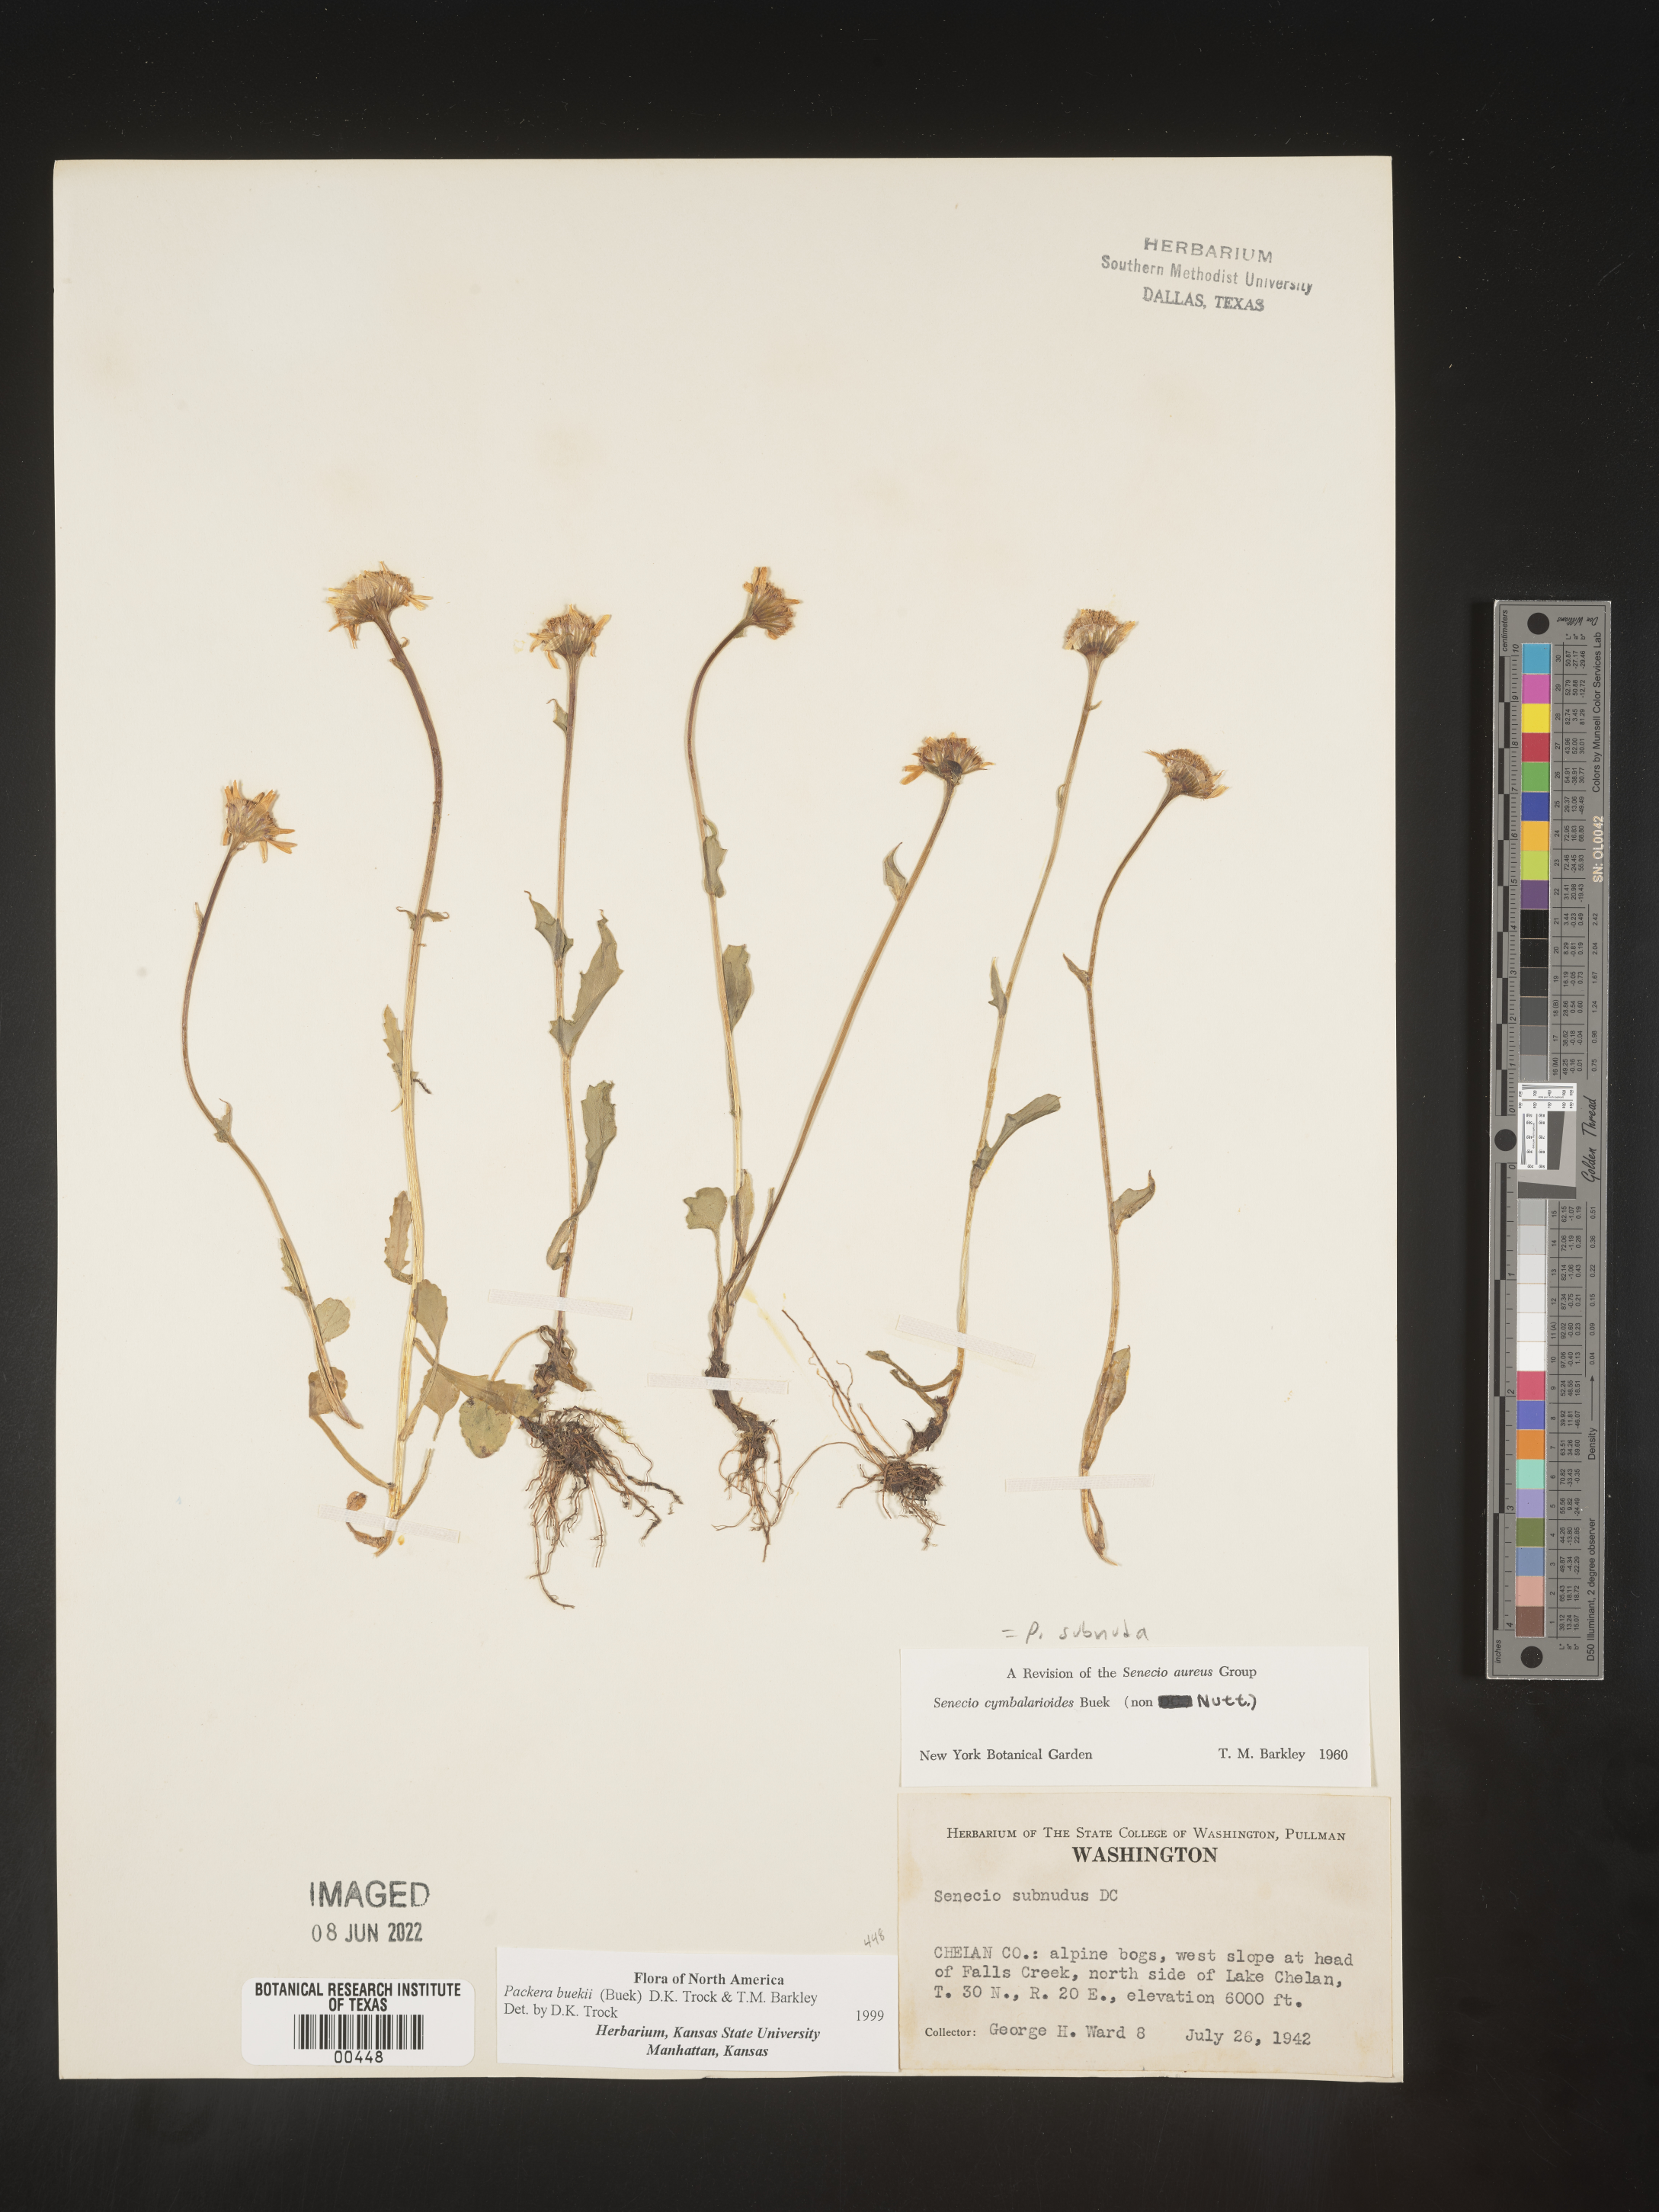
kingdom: Plantae
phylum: Tracheophyta
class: Magnoliopsida
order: Asterales
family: Asteraceae
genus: Packera
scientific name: Packera subnuda
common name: Buek's groundsel
